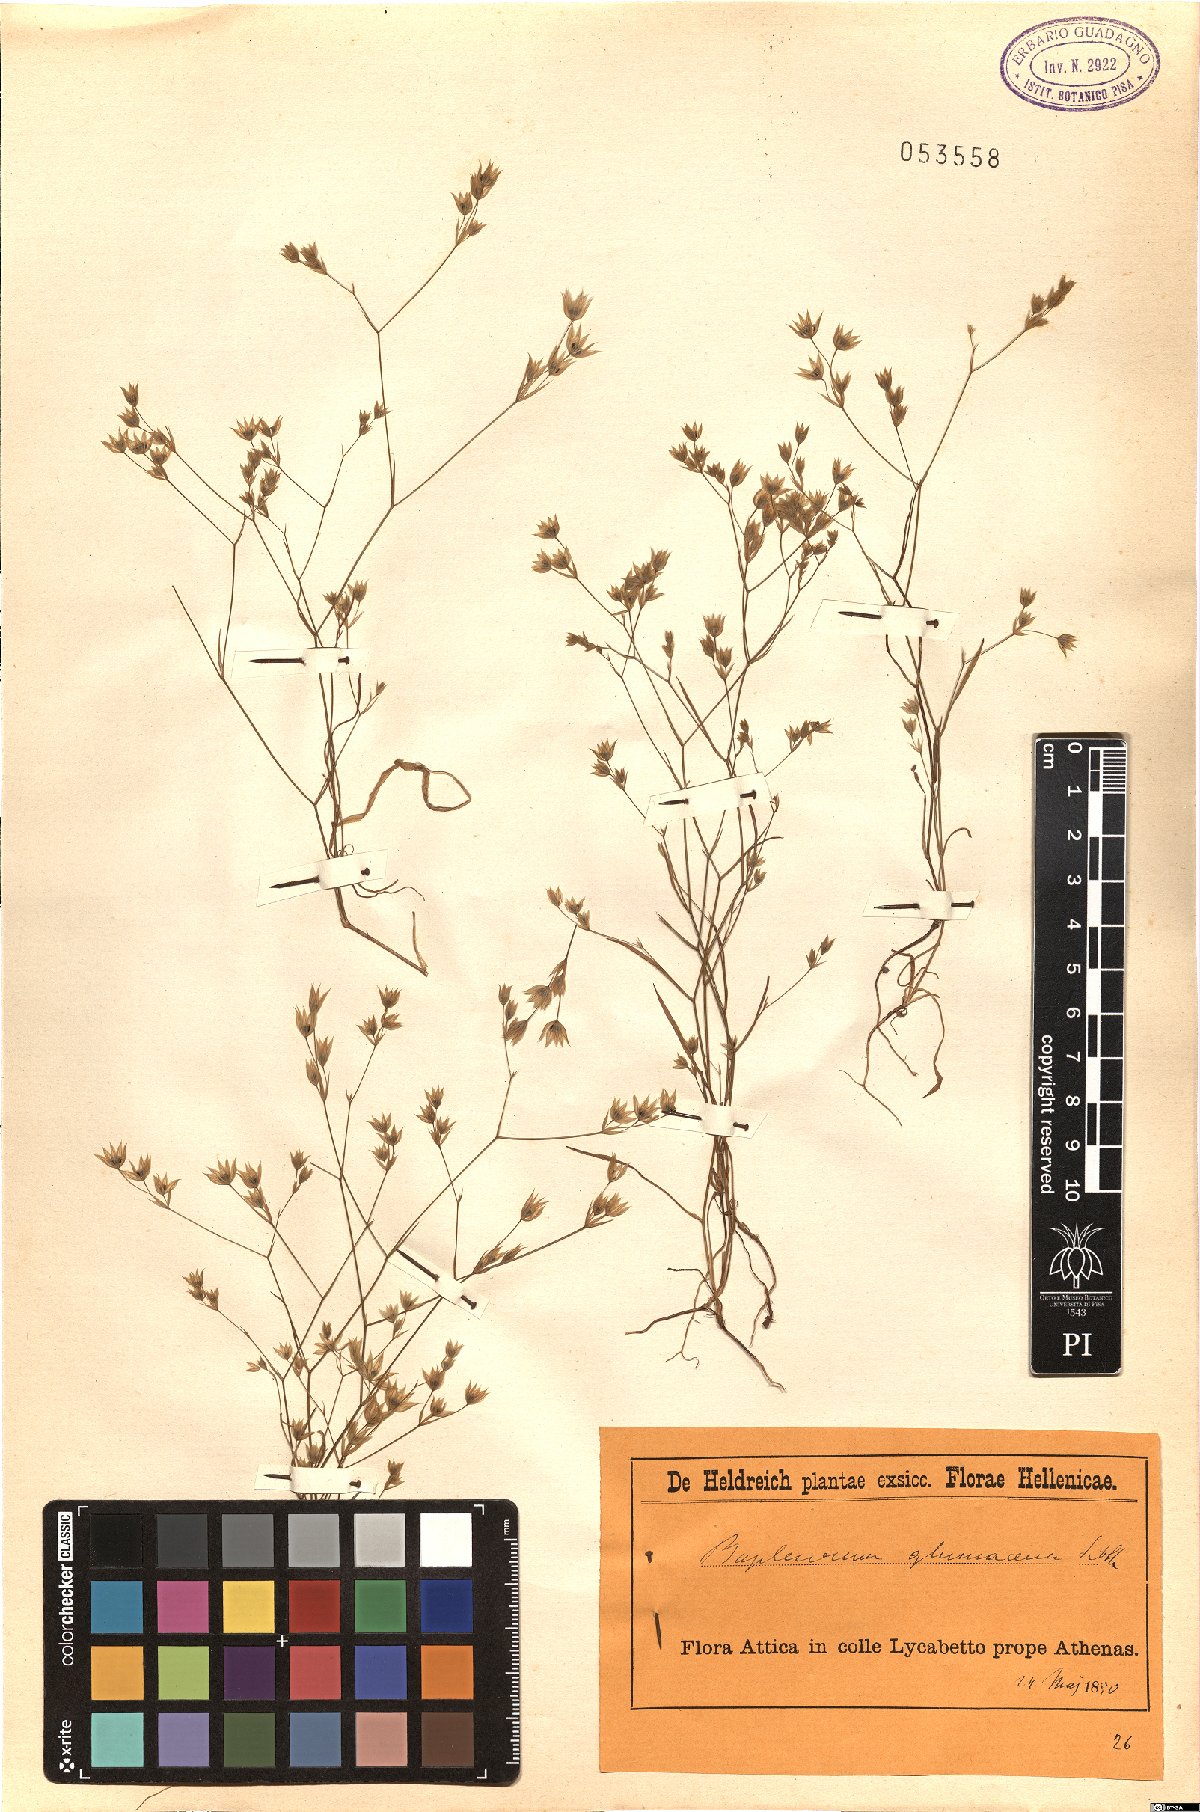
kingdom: Plantae
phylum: Tracheophyta
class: Magnoliopsida
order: Apiales
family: Apiaceae
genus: Bupleurum
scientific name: Bupleurum glumaceum
